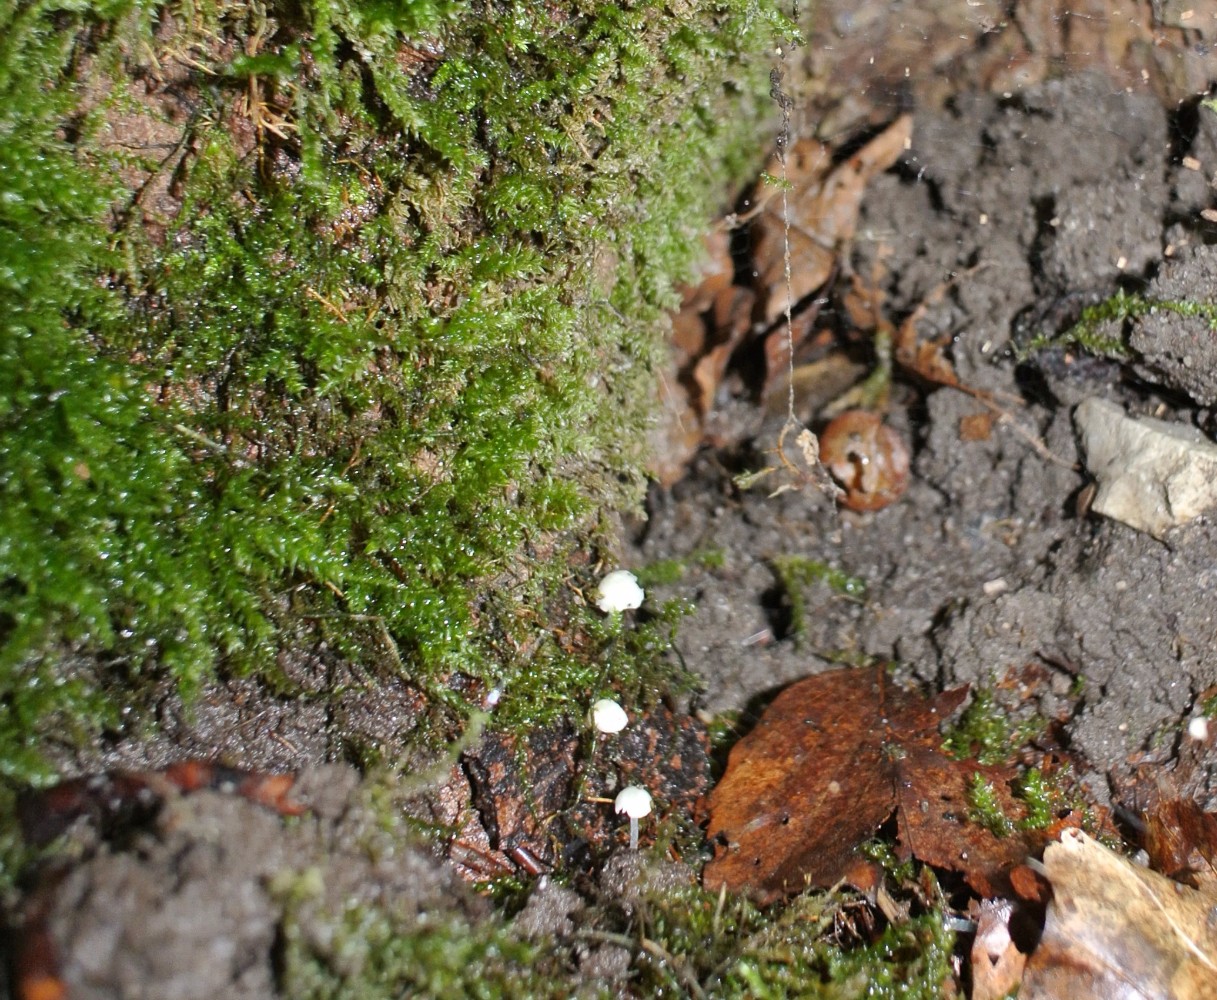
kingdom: Fungi
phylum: Basidiomycota
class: Agaricomycetes
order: Agaricales
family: Porotheleaceae
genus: Phloeomana
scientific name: Phloeomana minutula
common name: bleg huesvamp
